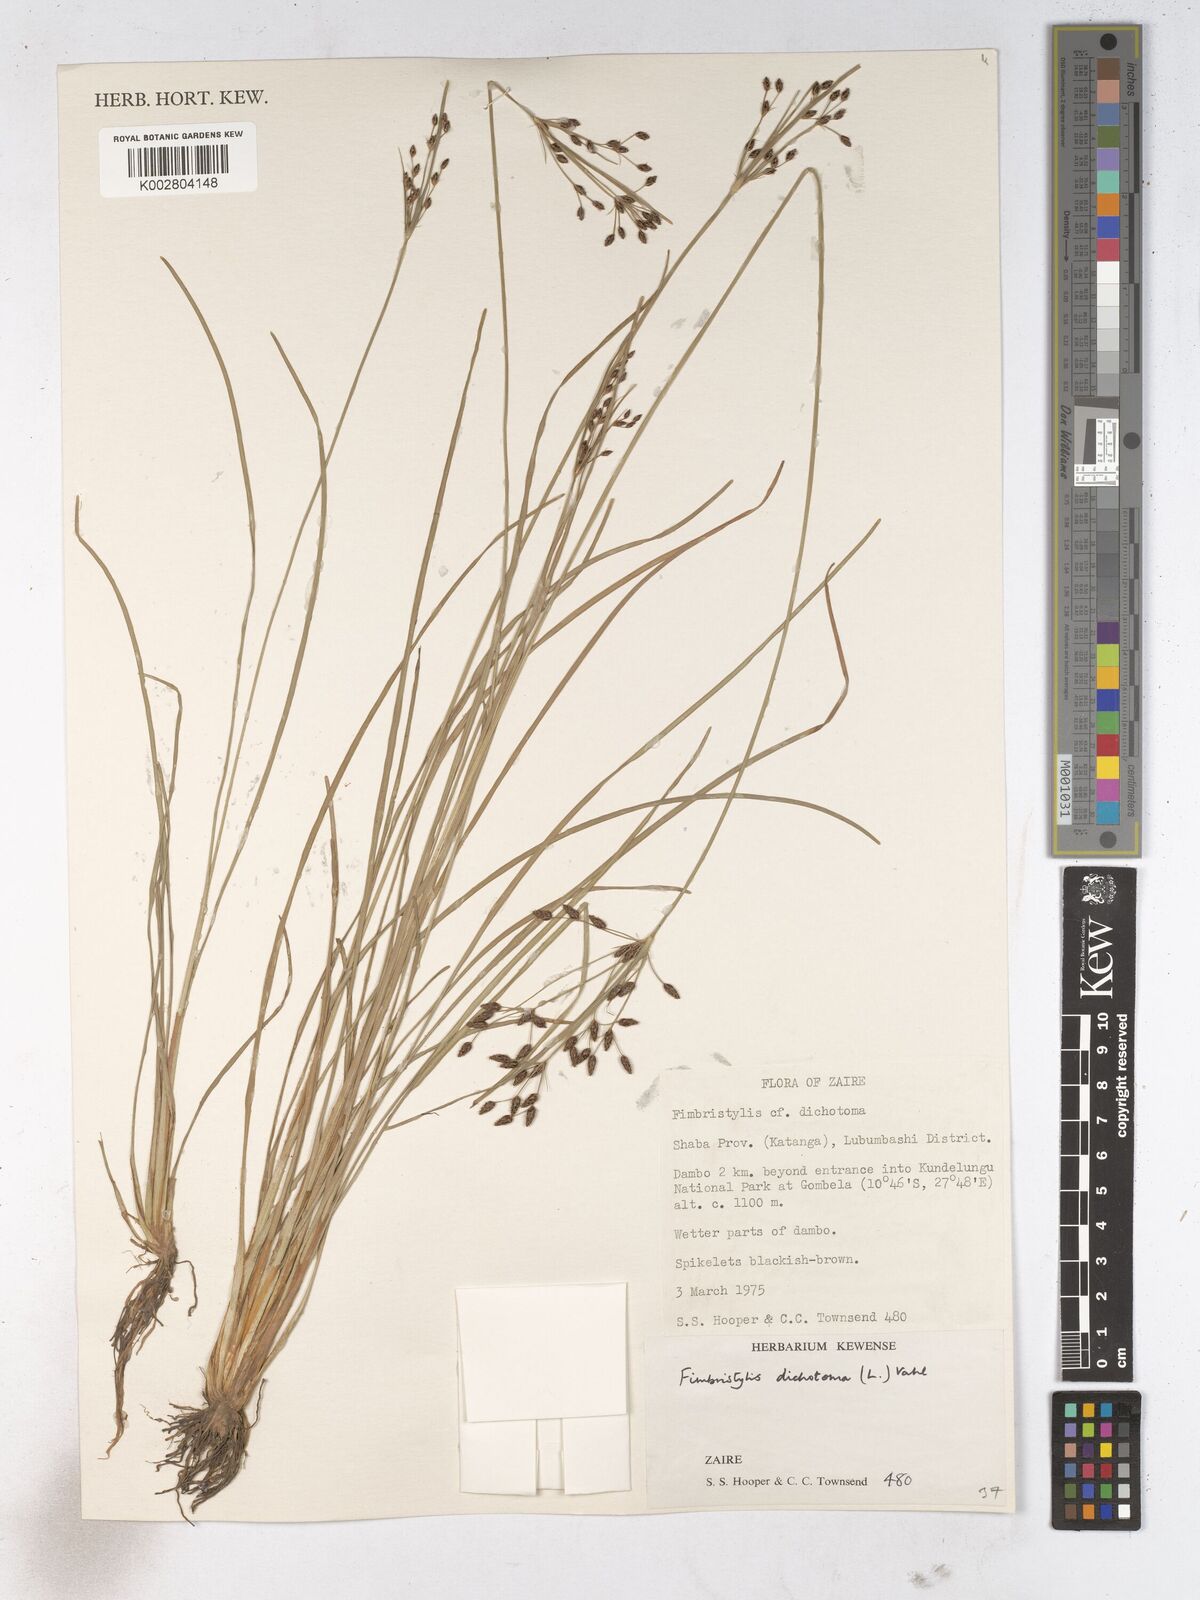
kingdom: Plantae
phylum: Tracheophyta
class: Liliopsida
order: Poales
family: Cyperaceae
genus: Fimbristylis
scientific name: Fimbristylis dichotoma
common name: Forked fimbry
